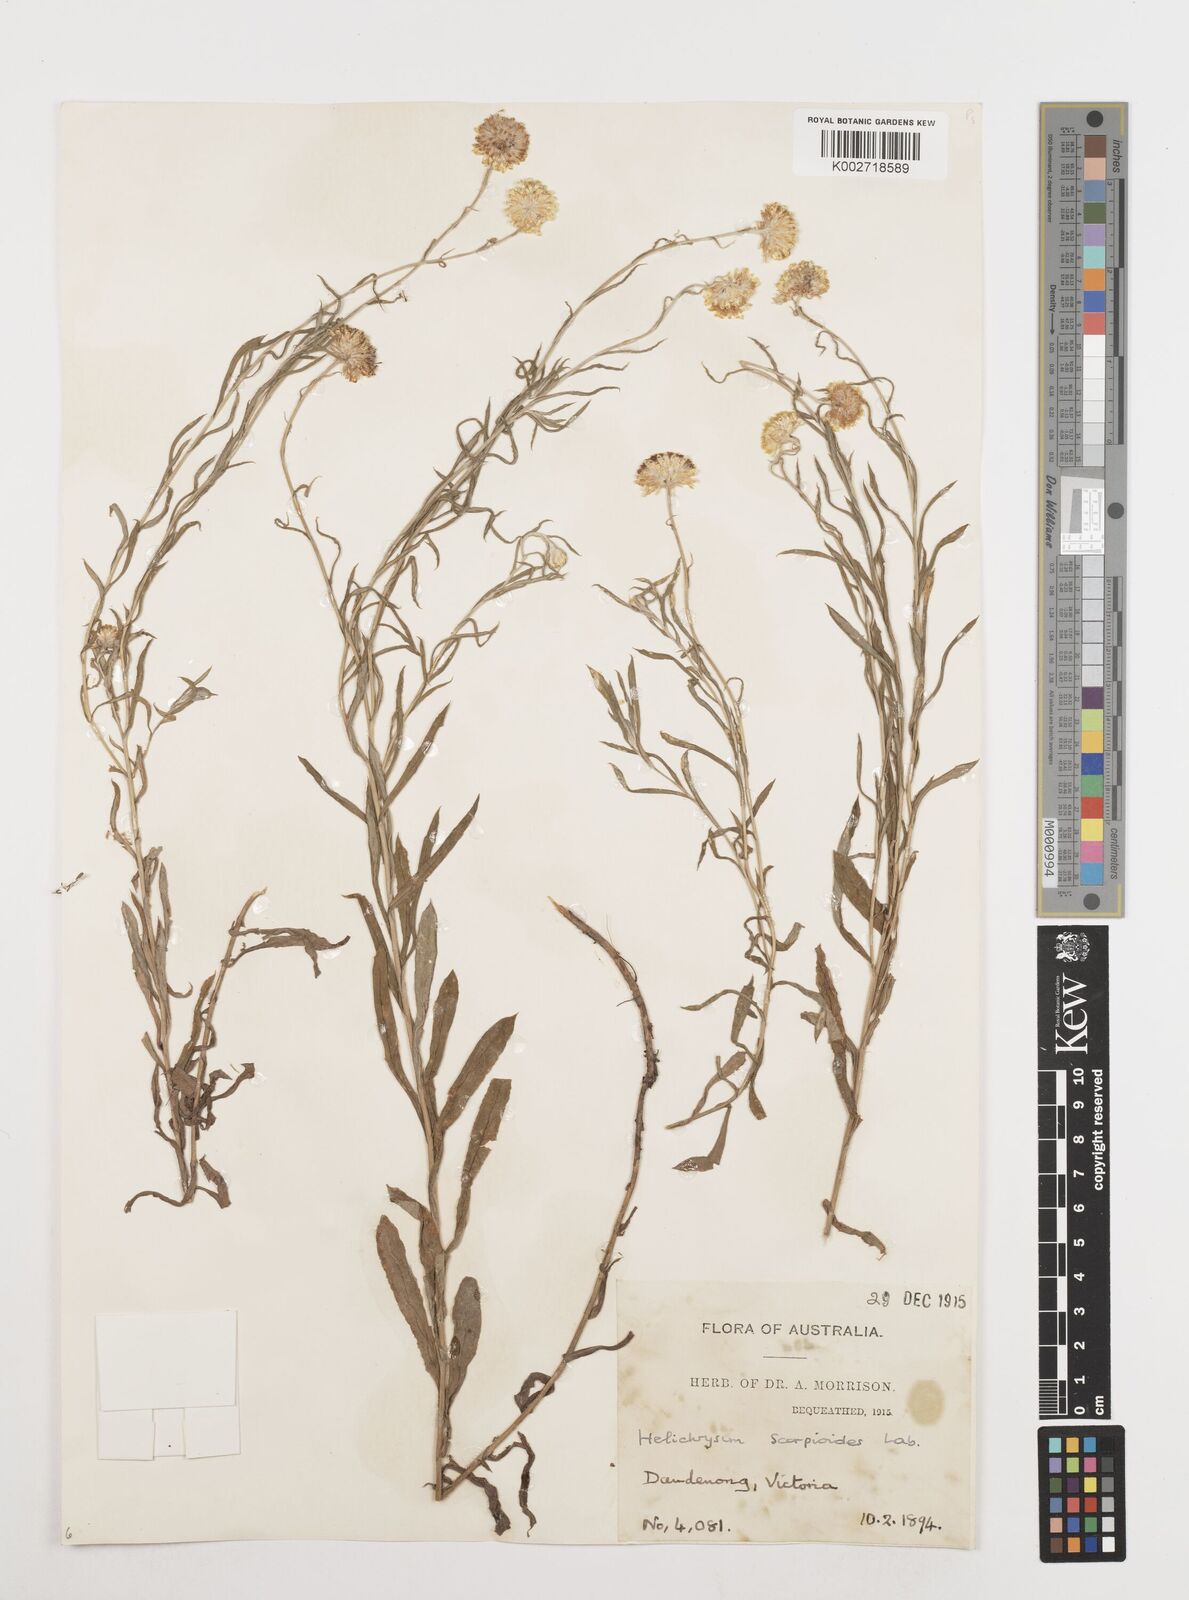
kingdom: Plantae
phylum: Tracheophyta
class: Magnoliopsida
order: Asterales
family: Asteraceae
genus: Coronidium
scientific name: Coronidium scorpioides
